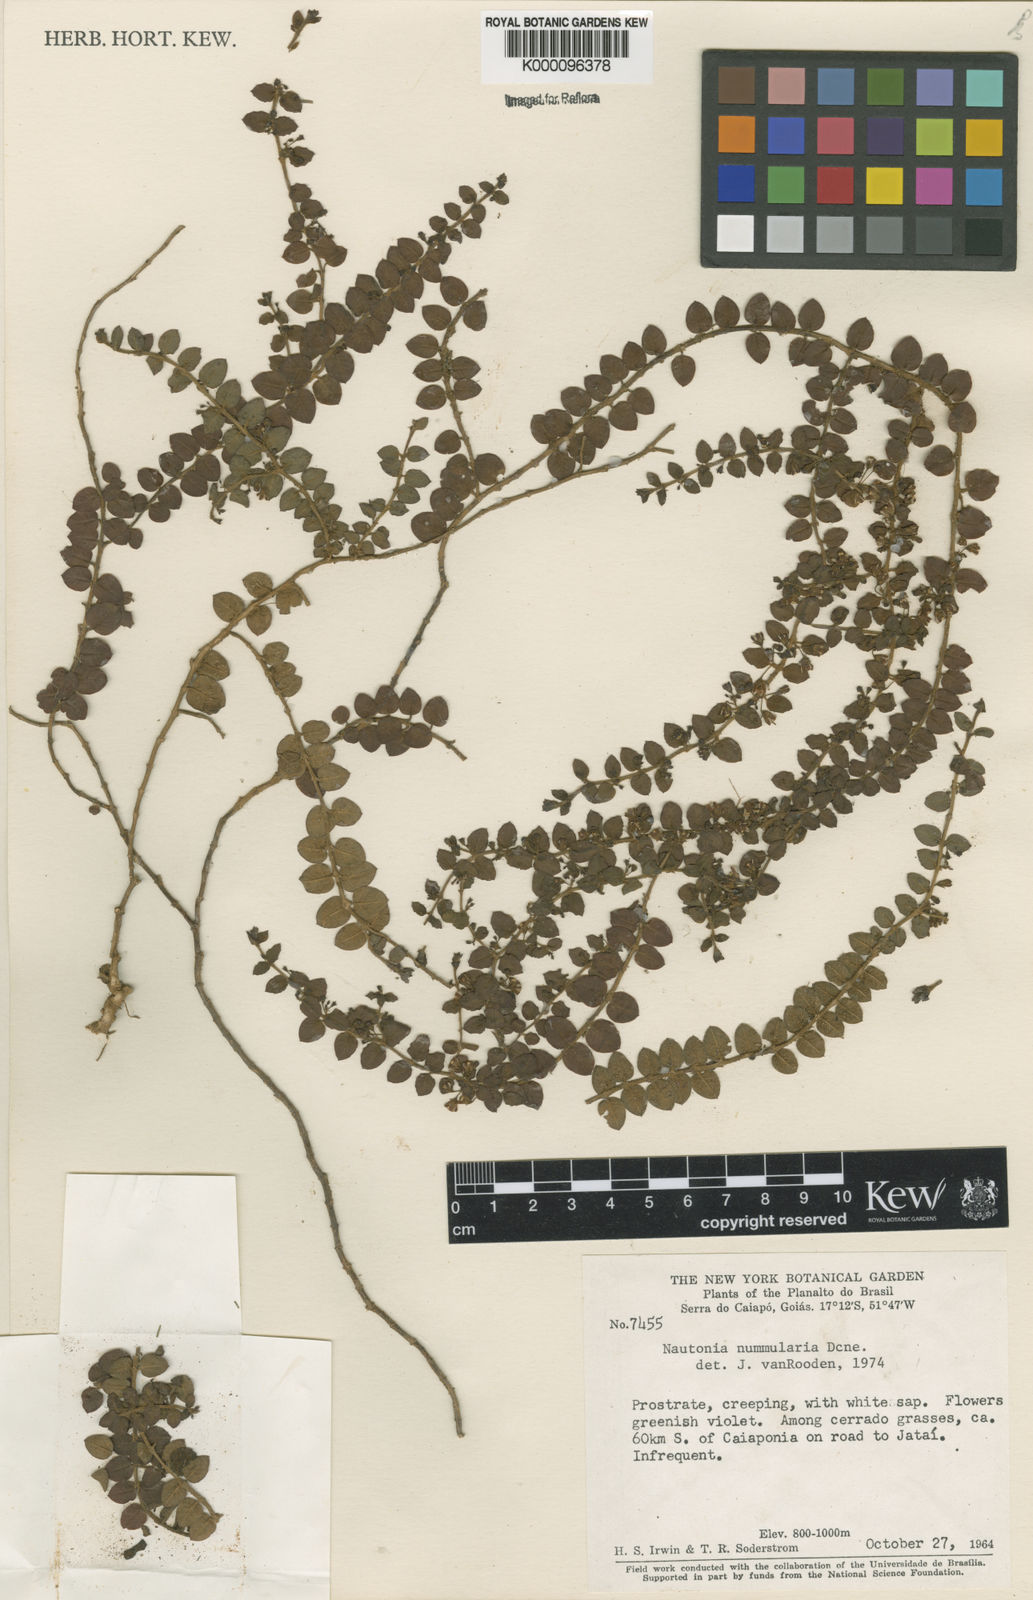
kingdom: Plantae
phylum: Tracheophyta
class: Magnoliopsida
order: Gentianales
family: Apocynaceae
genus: Nautonia
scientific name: Nautonia nummularia
